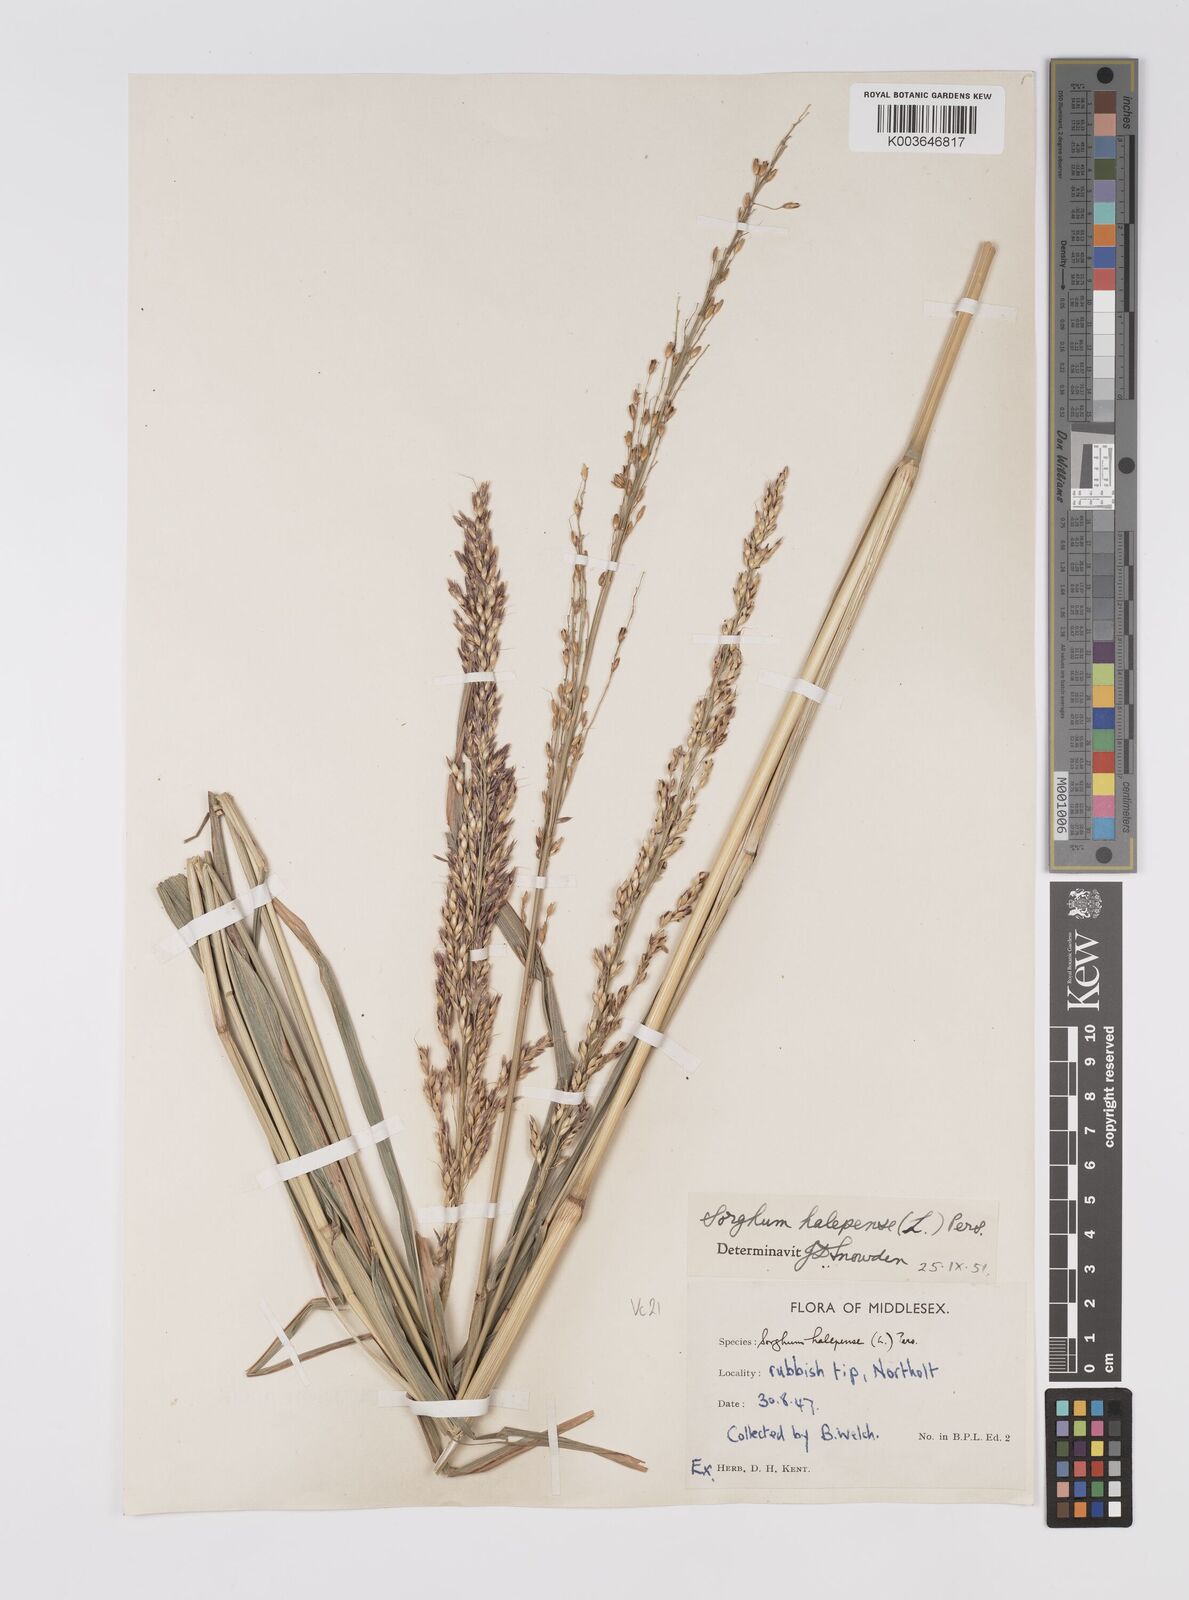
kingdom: Plantae
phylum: Tracheophyta
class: Liliopsida
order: Poales
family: Poaceae
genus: Sorghum
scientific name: Sorghum halepense
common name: Johnson-grass
